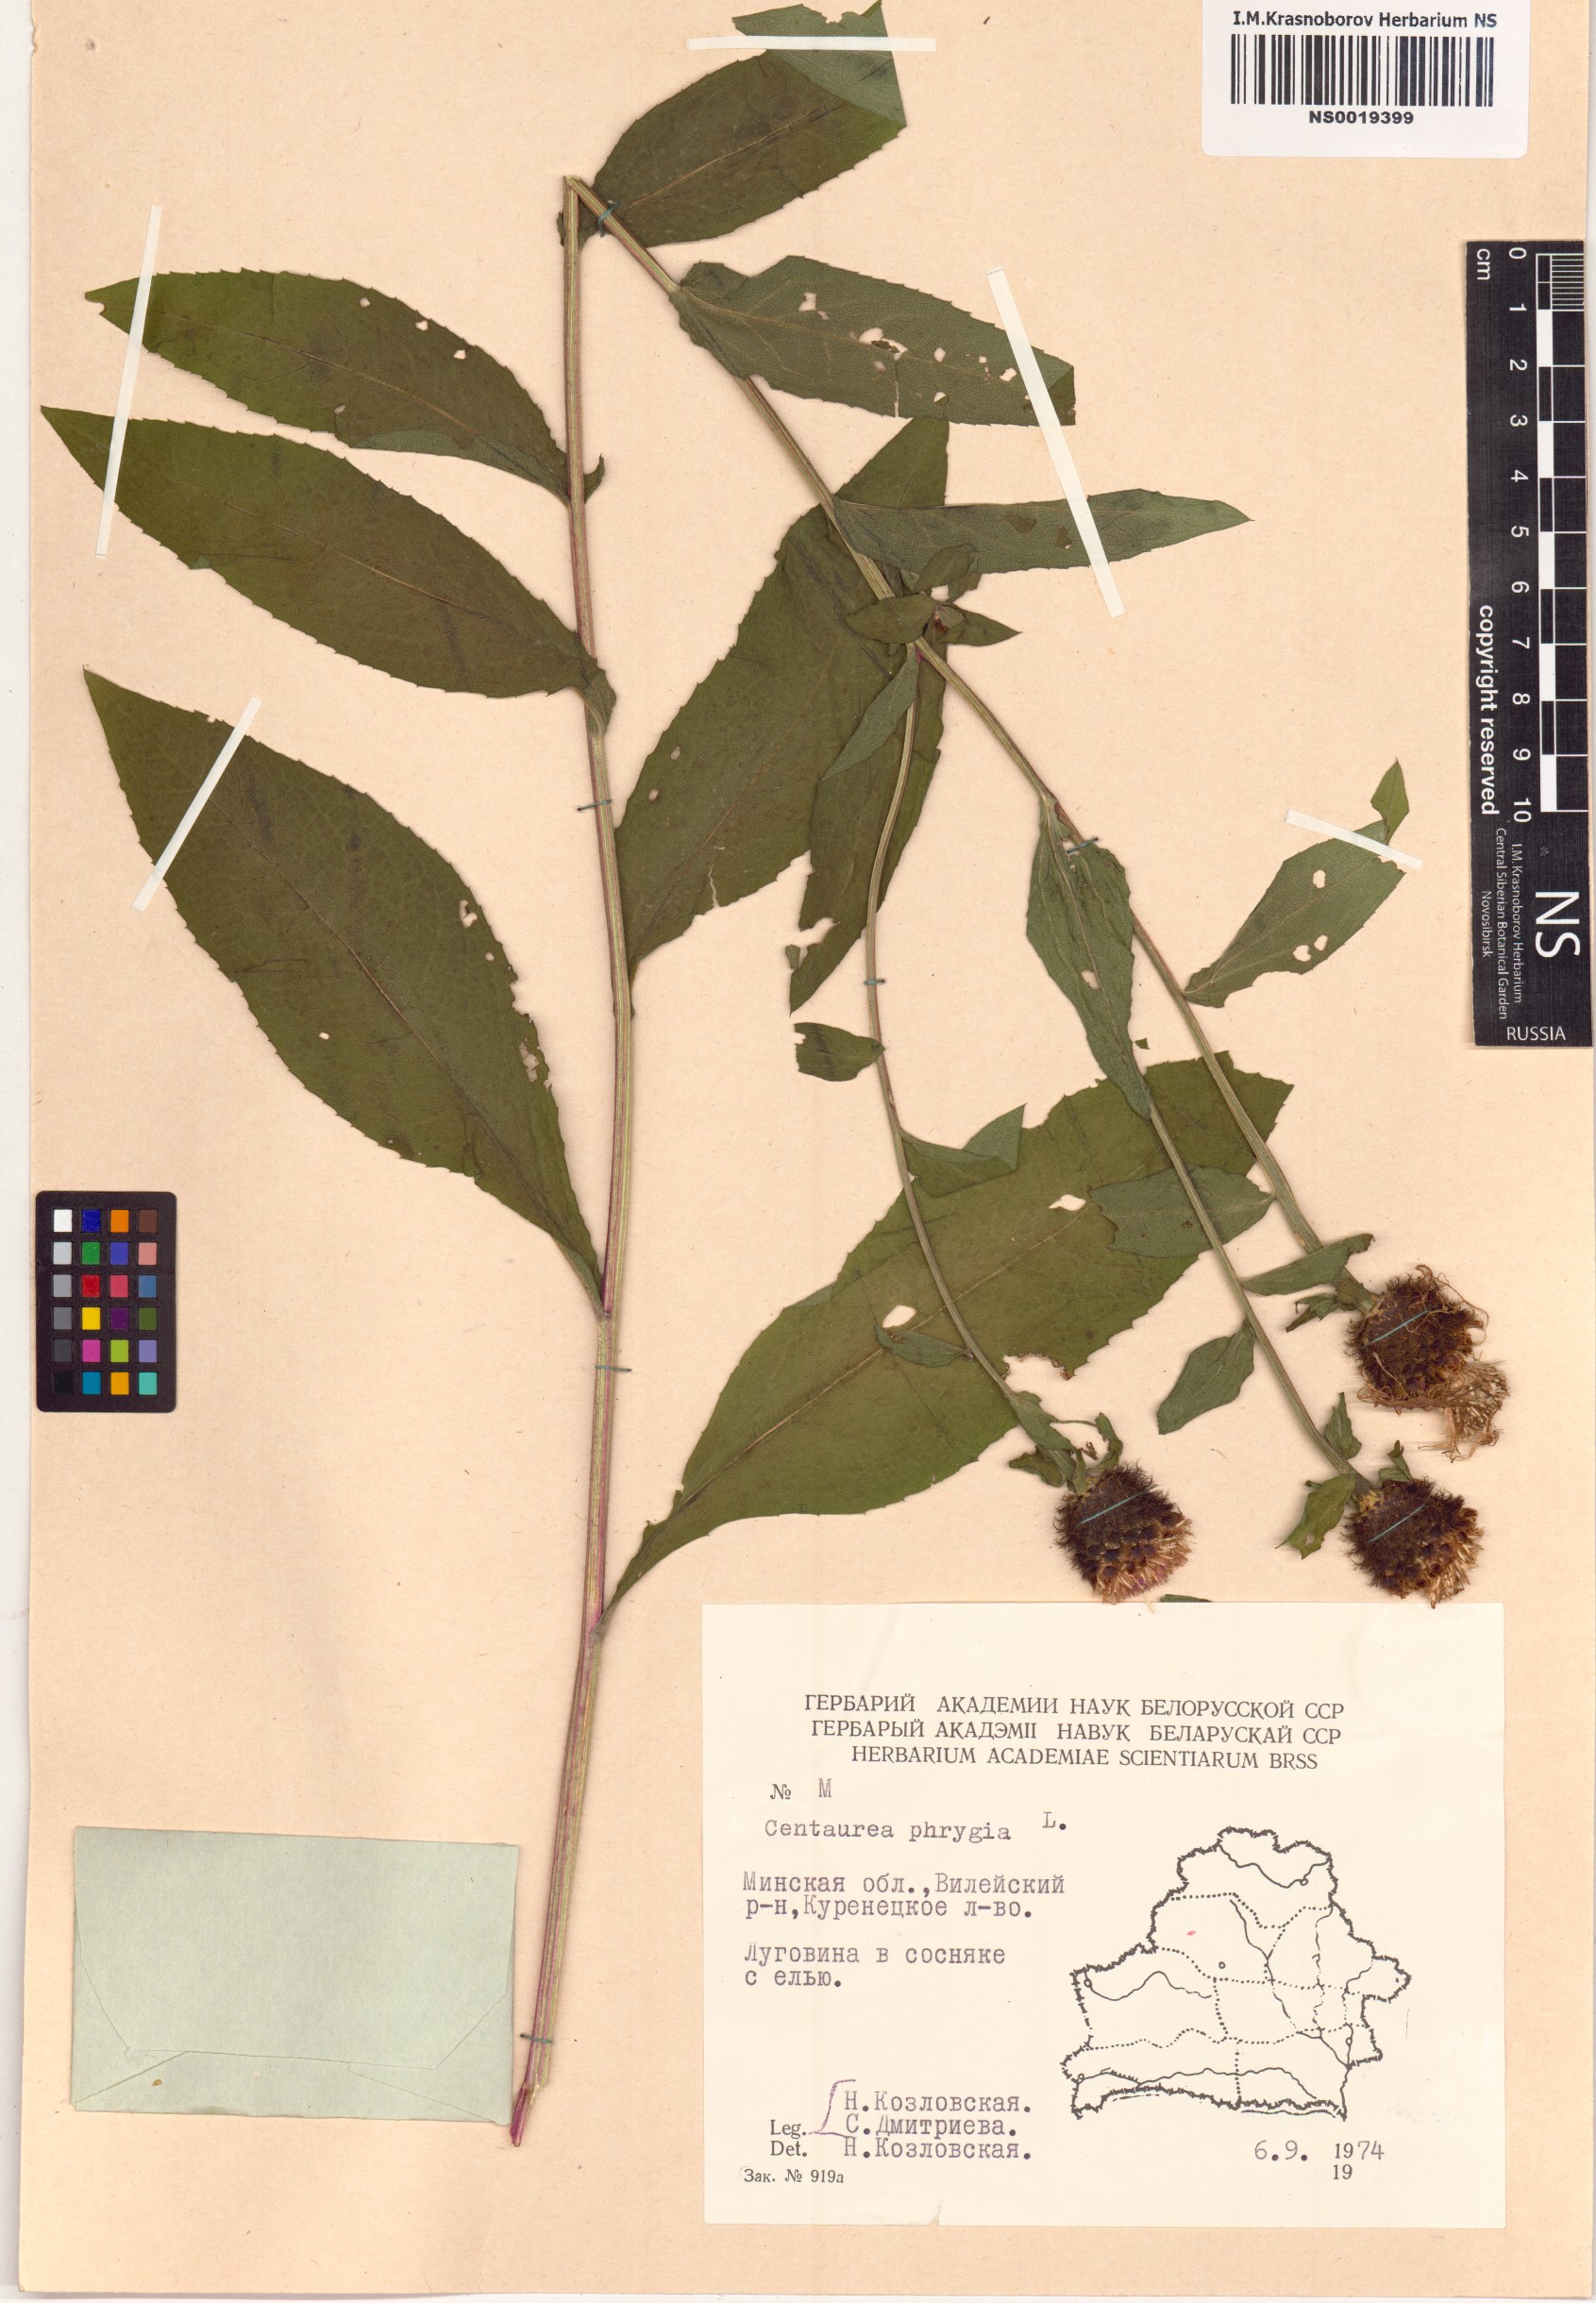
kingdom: Plantae
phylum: Tracheophyta
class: Magnoliopsida
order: Asterales
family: Asteraceae
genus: Centaurea
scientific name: Centaurea phrygia
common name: Wig knapweed
